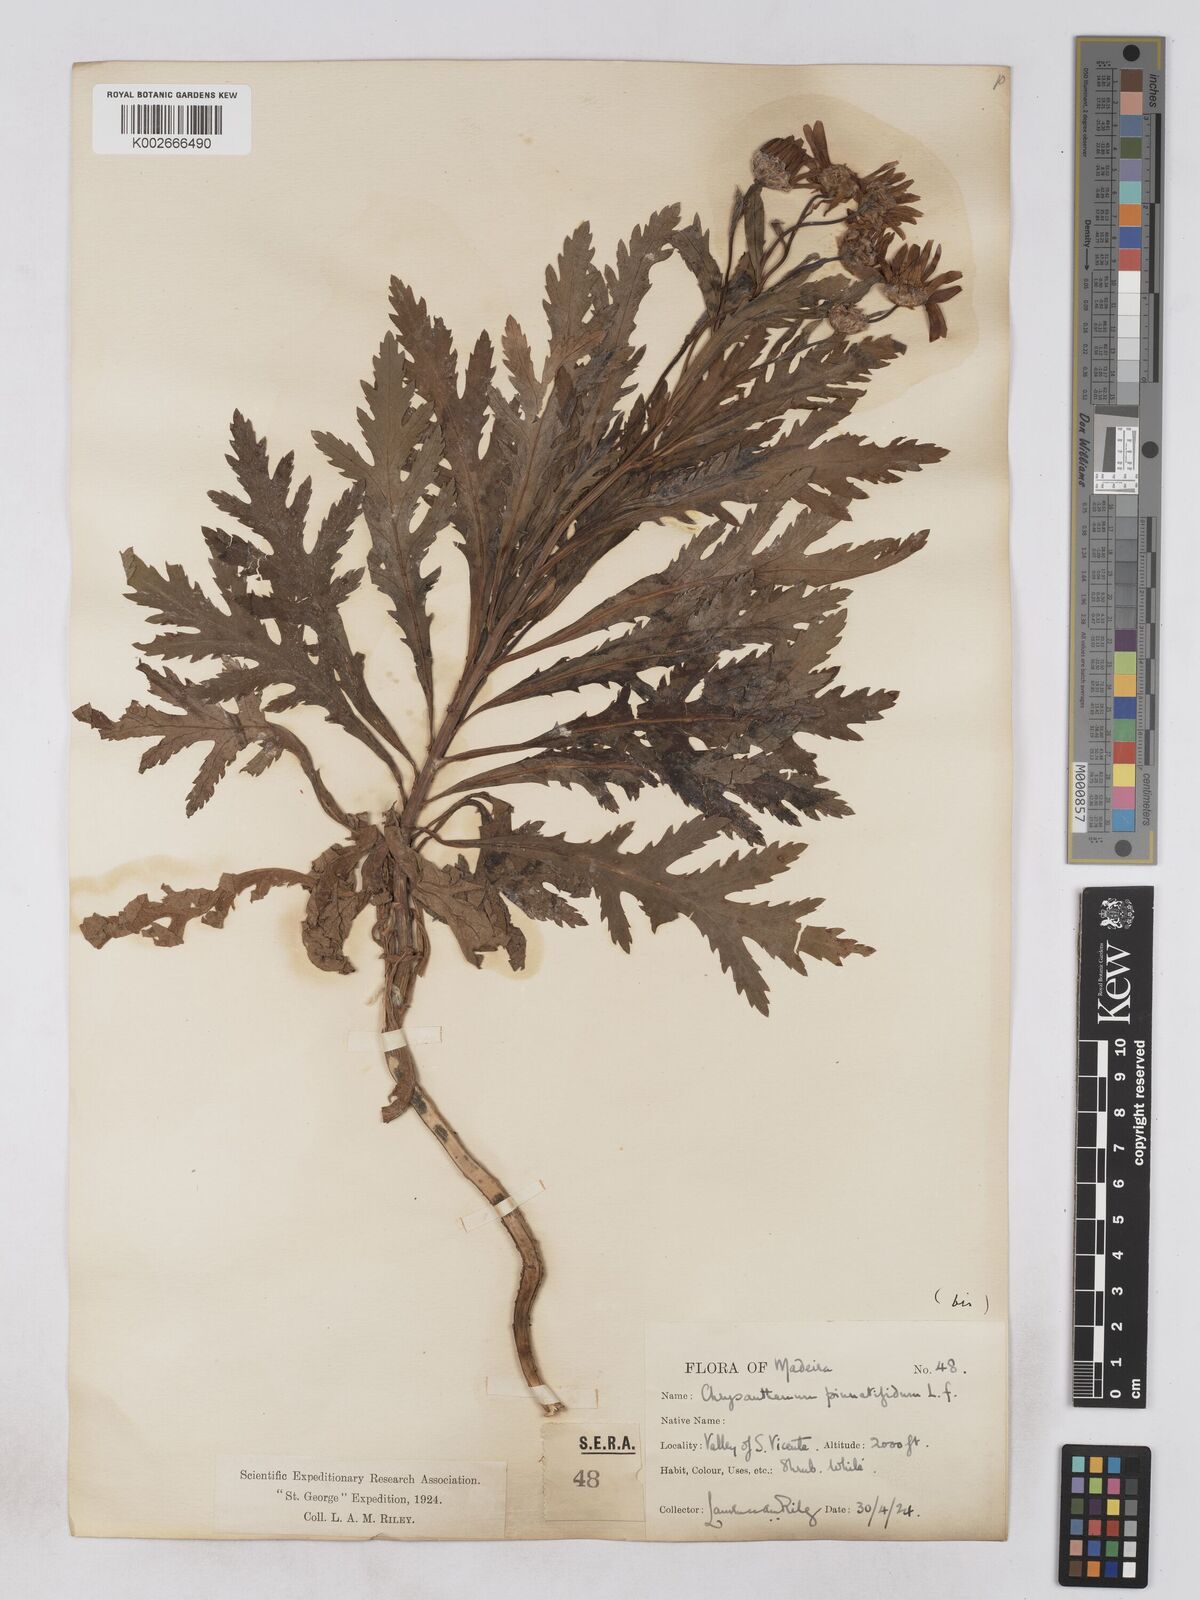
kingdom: Plantae
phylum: Tracheophyta
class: Magnoliopsida
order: Asterales
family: Asteraceae
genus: Argyranthemum
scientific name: Argyranthemum pinnatifidum
